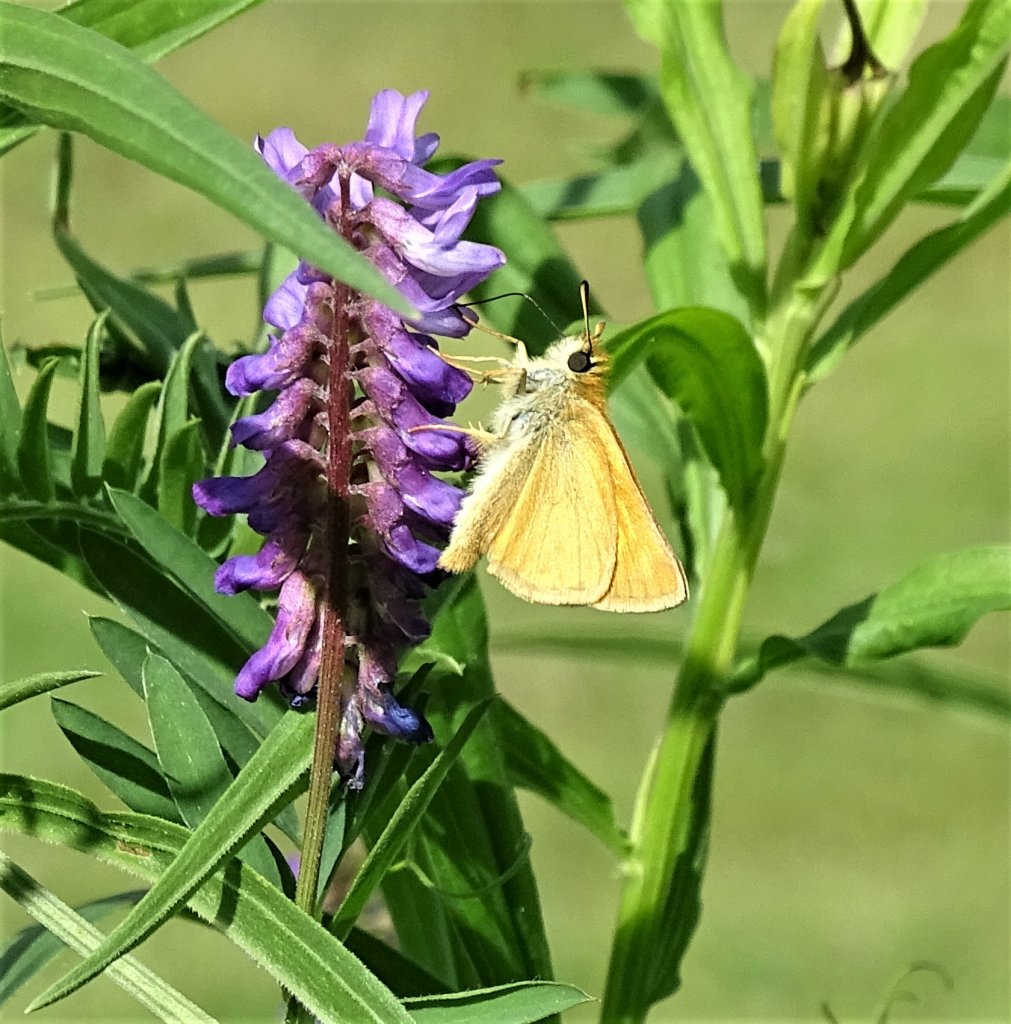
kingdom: Animalia
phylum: Arthropoda
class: Insecta
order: Lepidoptera
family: Hesperiidae
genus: Thymelicus
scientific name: Thymelicus lineola
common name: European Skipper
